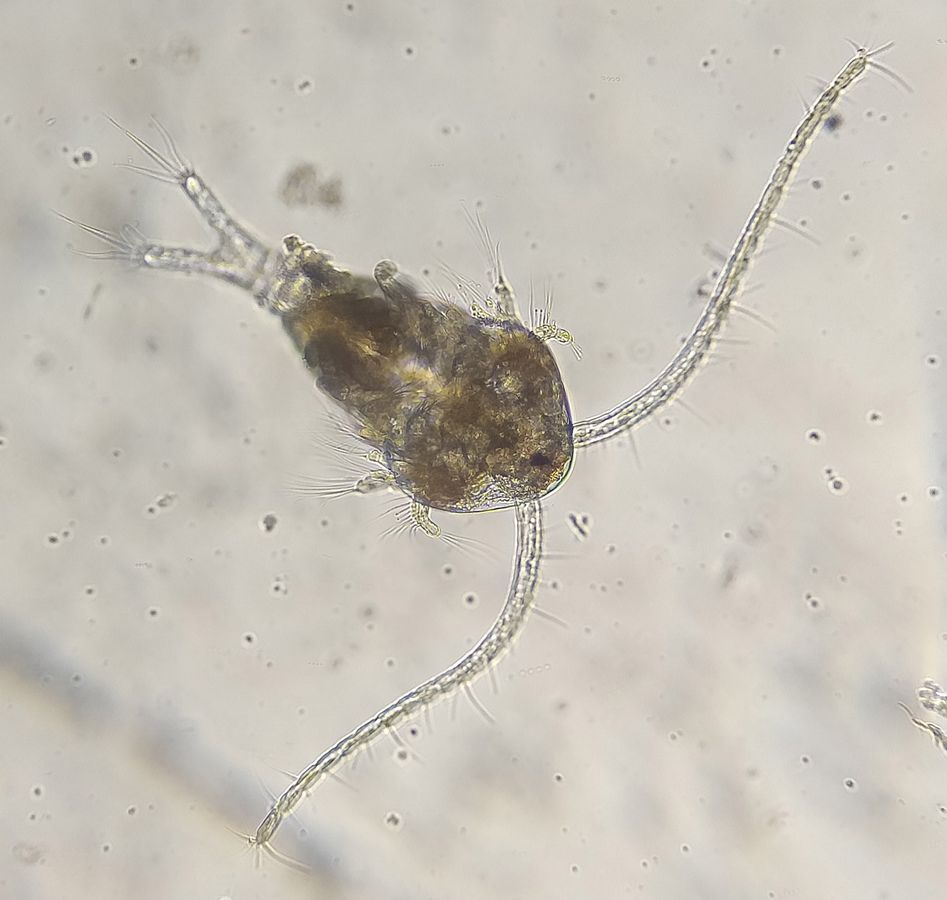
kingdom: Animalia
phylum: Arthropoda
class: Copepoda
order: Calanoida
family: Temoridae
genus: Temora
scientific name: Temora longicornis
